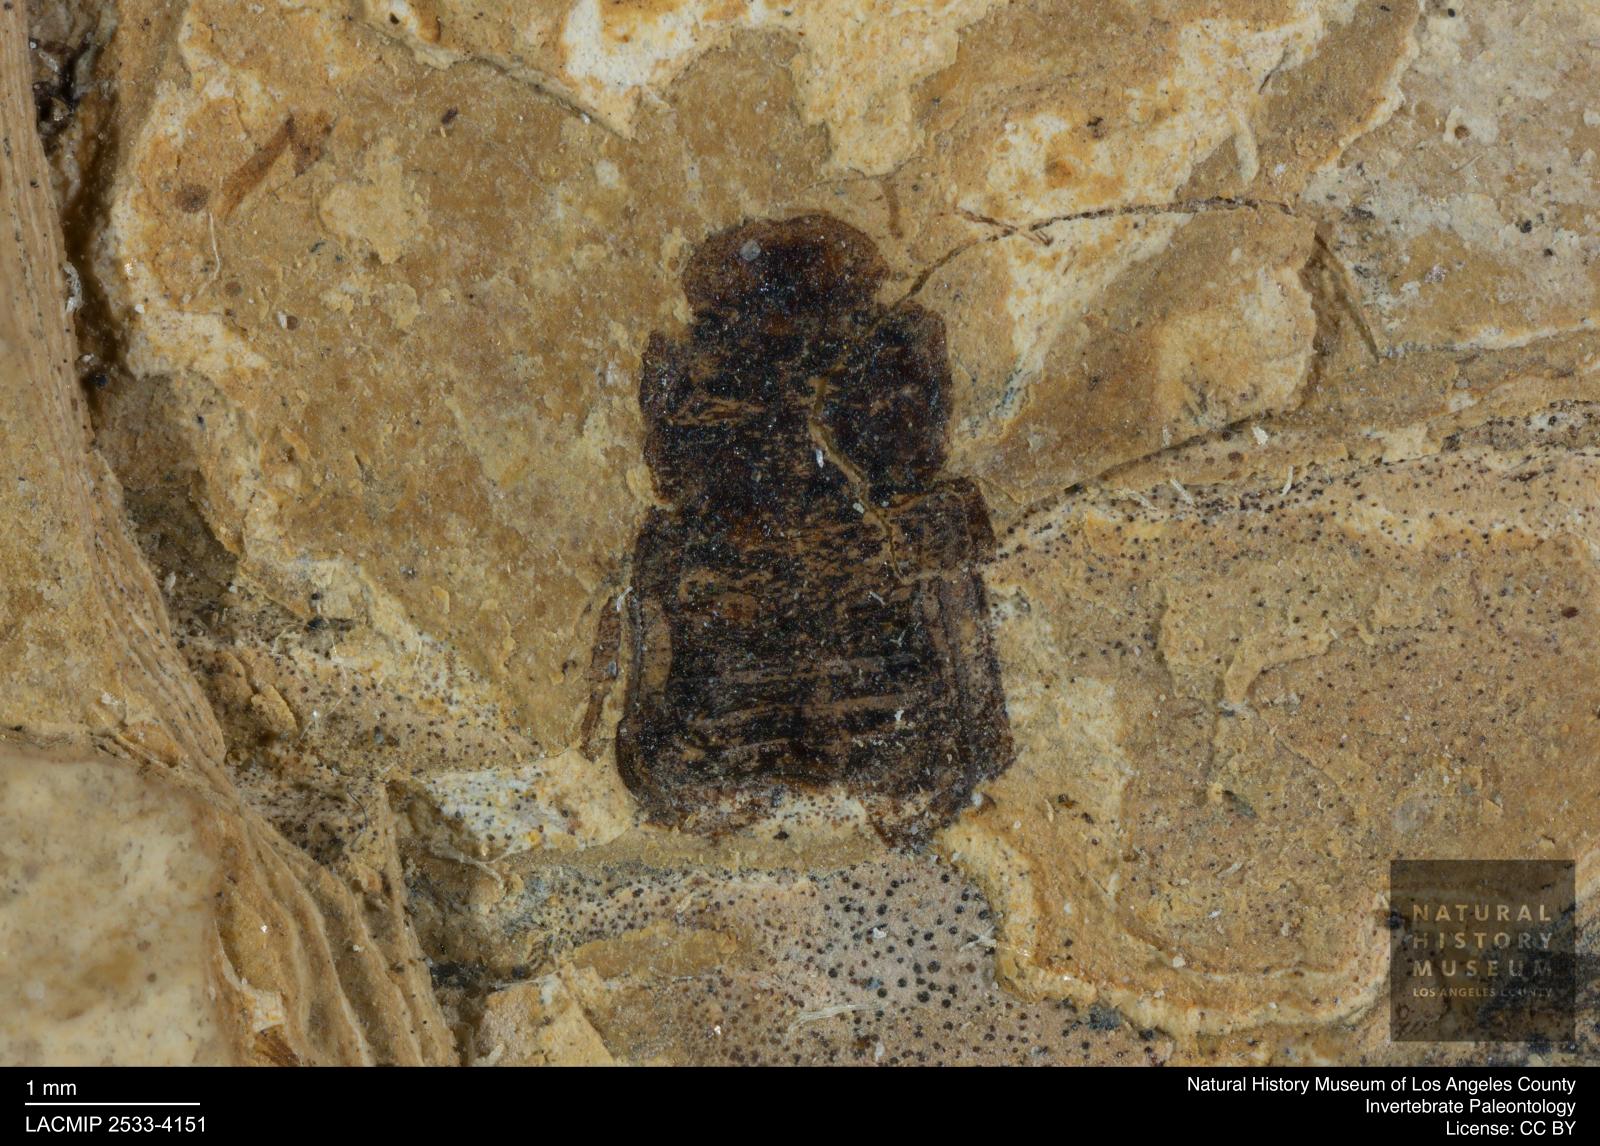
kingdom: Animalia
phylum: Arthropoda
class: Insecta
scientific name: Insecta
